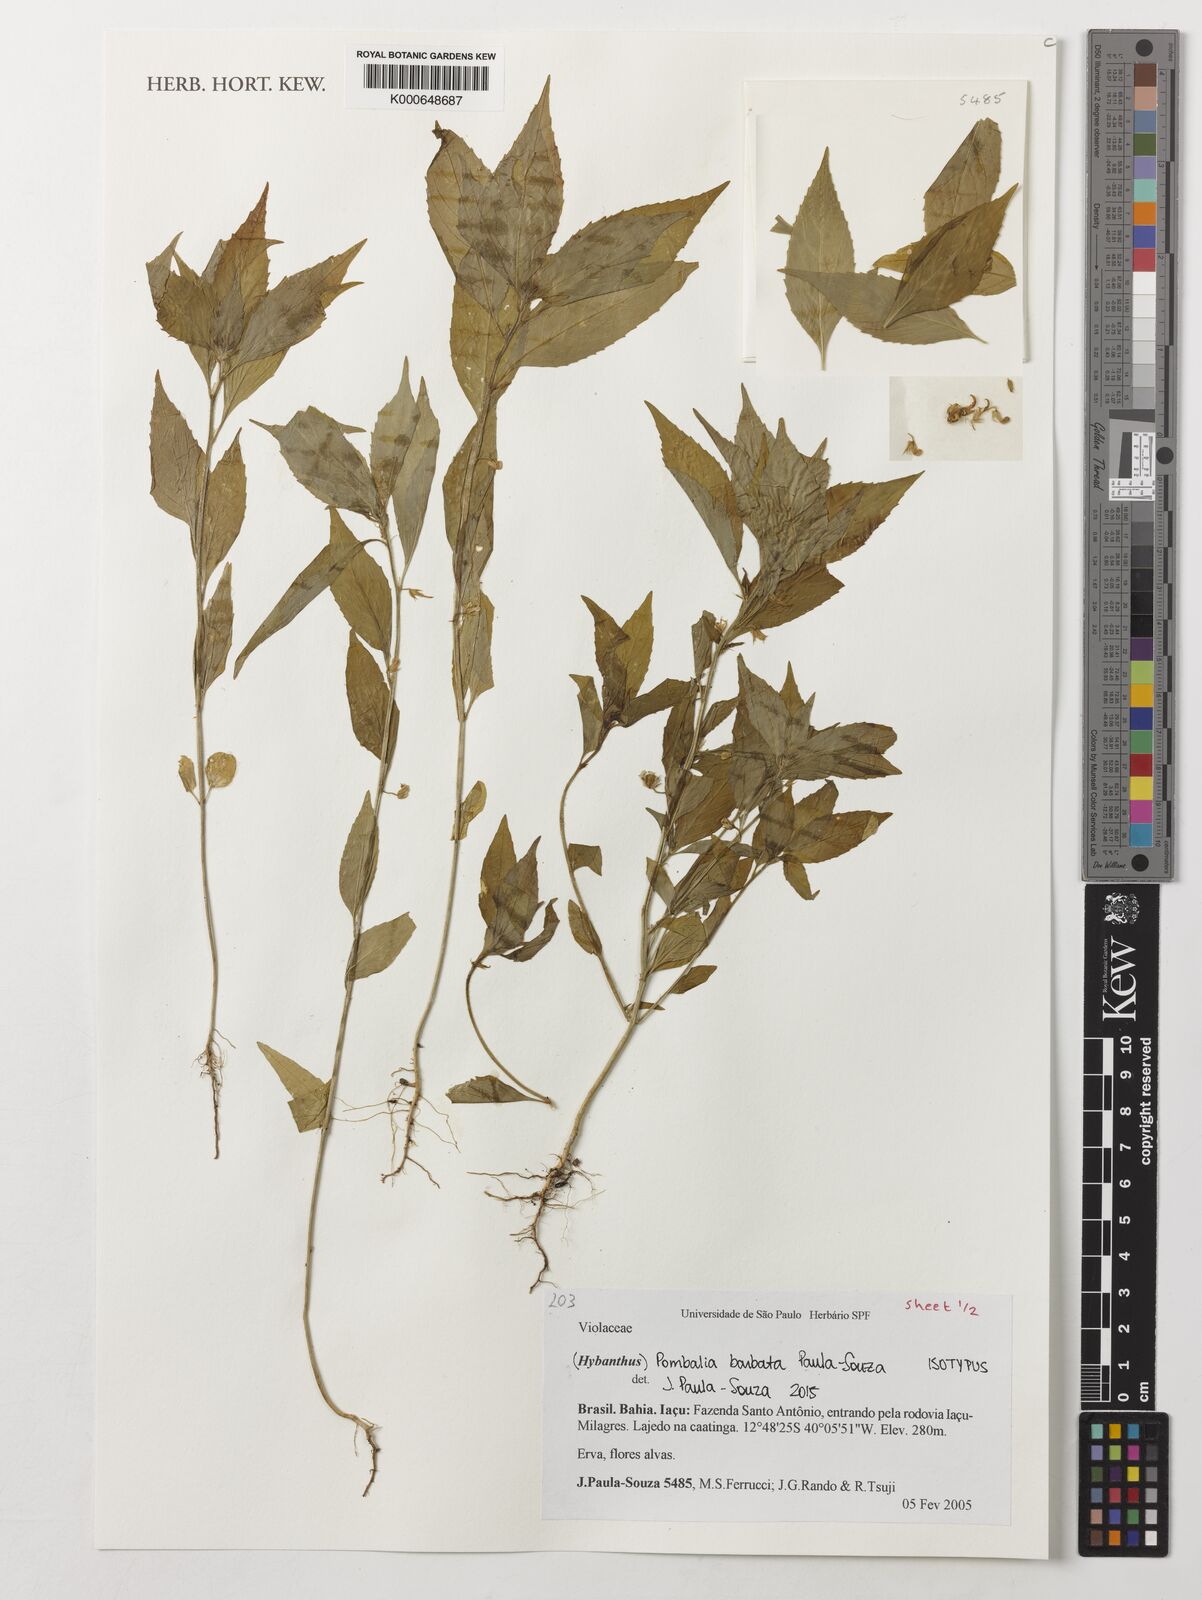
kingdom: Plantae
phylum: Tracheophyta
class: Magnoliopsida
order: Malpighiales
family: Violaceae
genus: Pombalia
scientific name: Pombalia barbata
